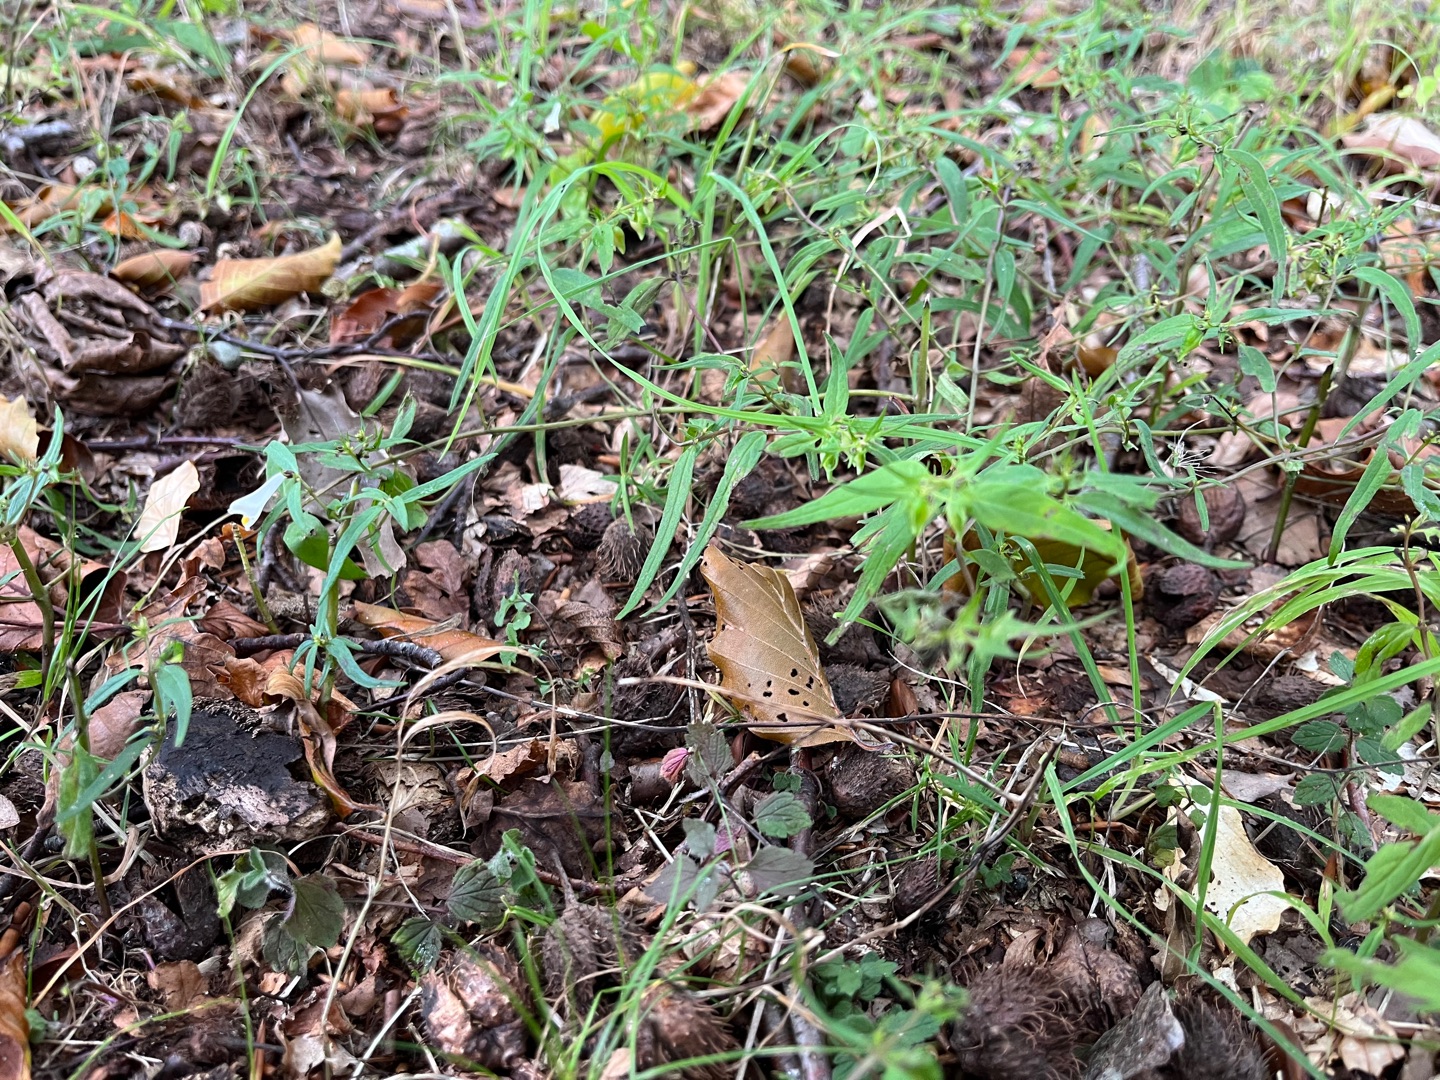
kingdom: Plantae
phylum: Tracheophyta
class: Magnoliopsida
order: Lamiales
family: Orobanchaceae
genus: Melampyrum
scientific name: Melampyrum pratense
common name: Almindelig kohvede
